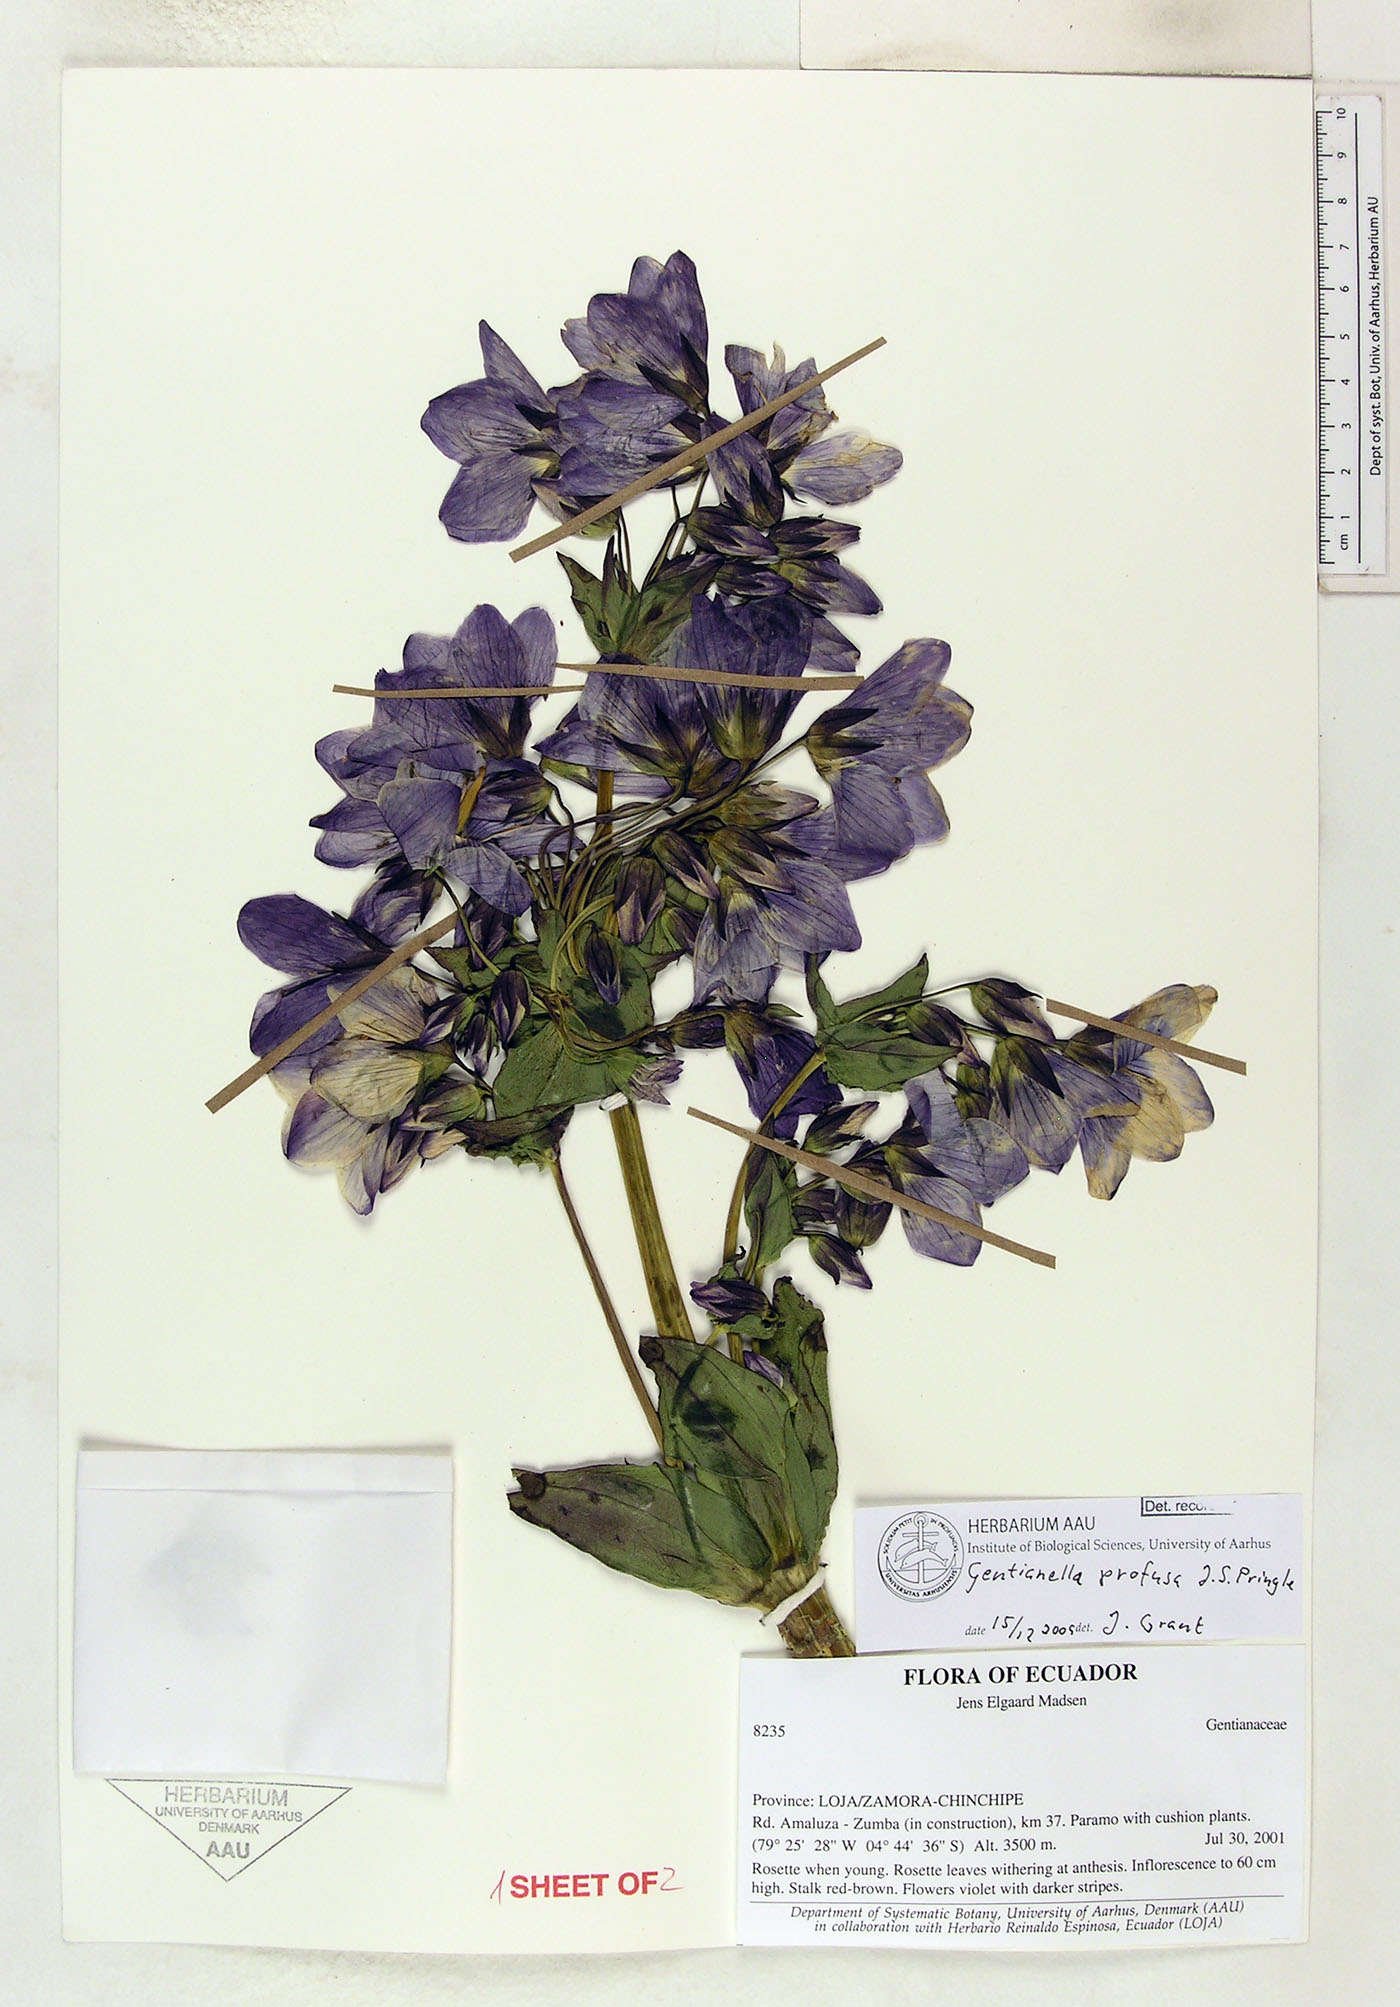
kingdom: Plantae
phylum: Tracheophyta
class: Magnoliopsida
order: Gentianales
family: Gentianaceae
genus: Gentianella
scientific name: Gentianella profusa
